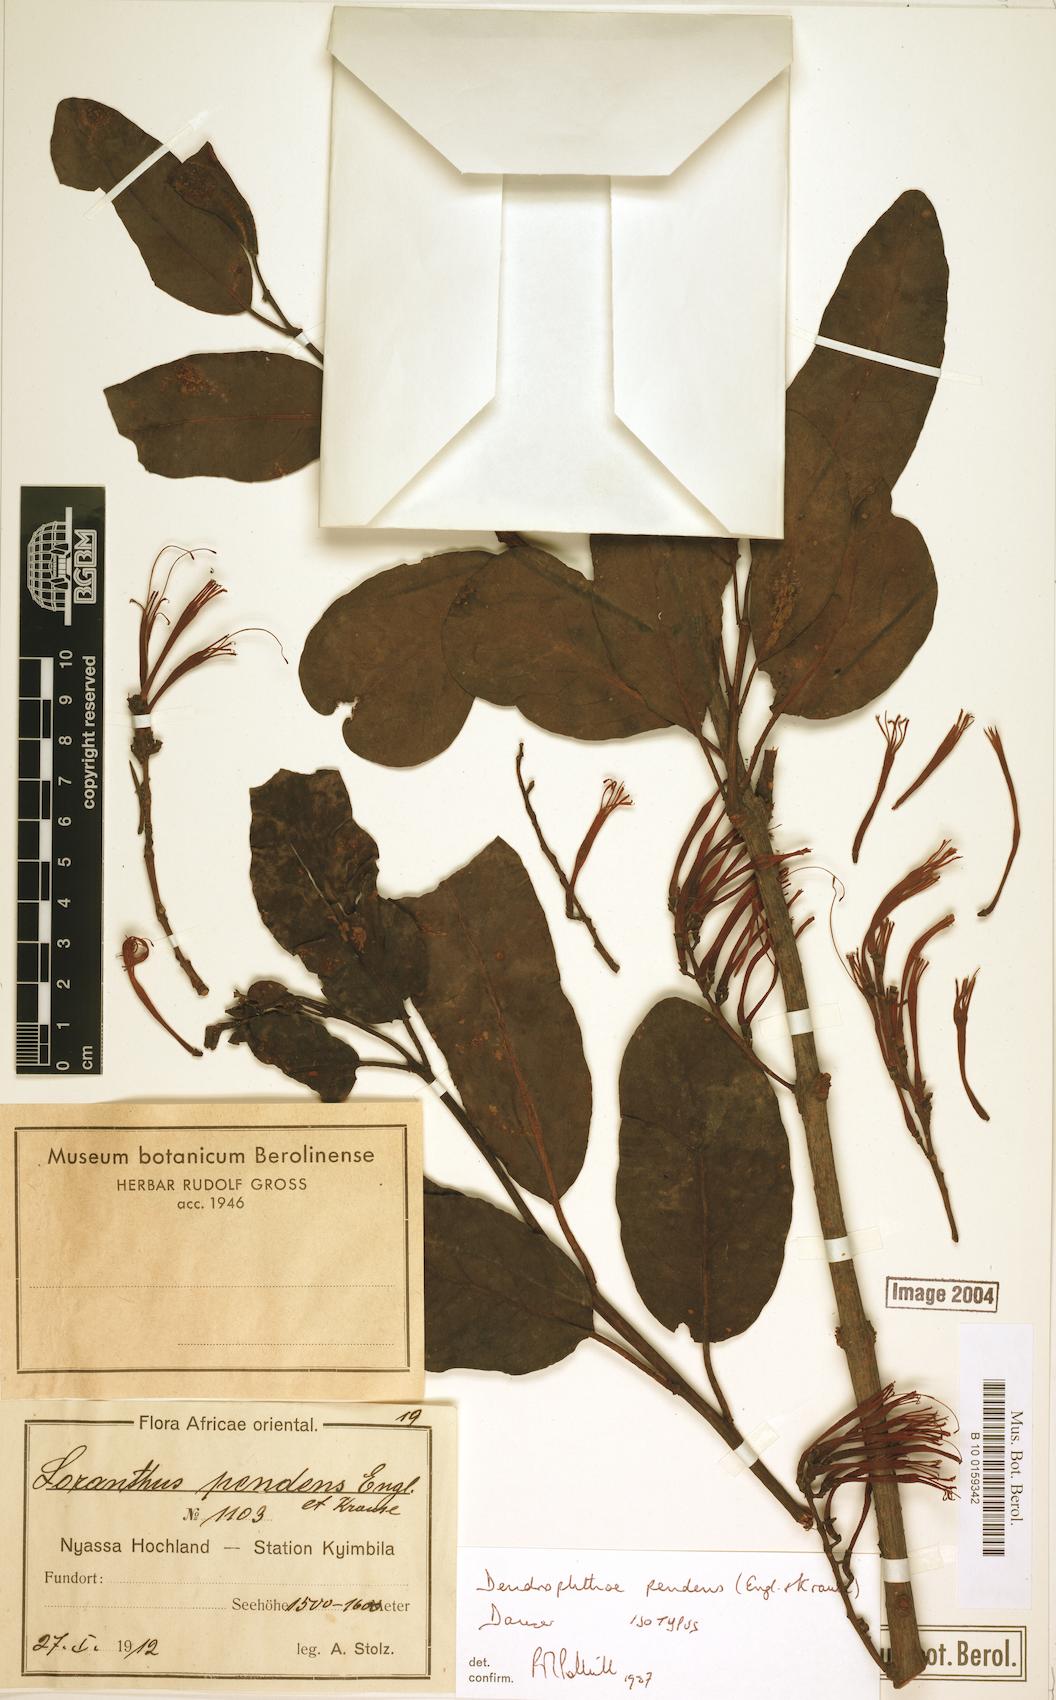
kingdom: Plantae
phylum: Tracheophyta
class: Magnoliopsida
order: Santalales
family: Loranthaceae
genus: Oedina
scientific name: Oedina pendens
